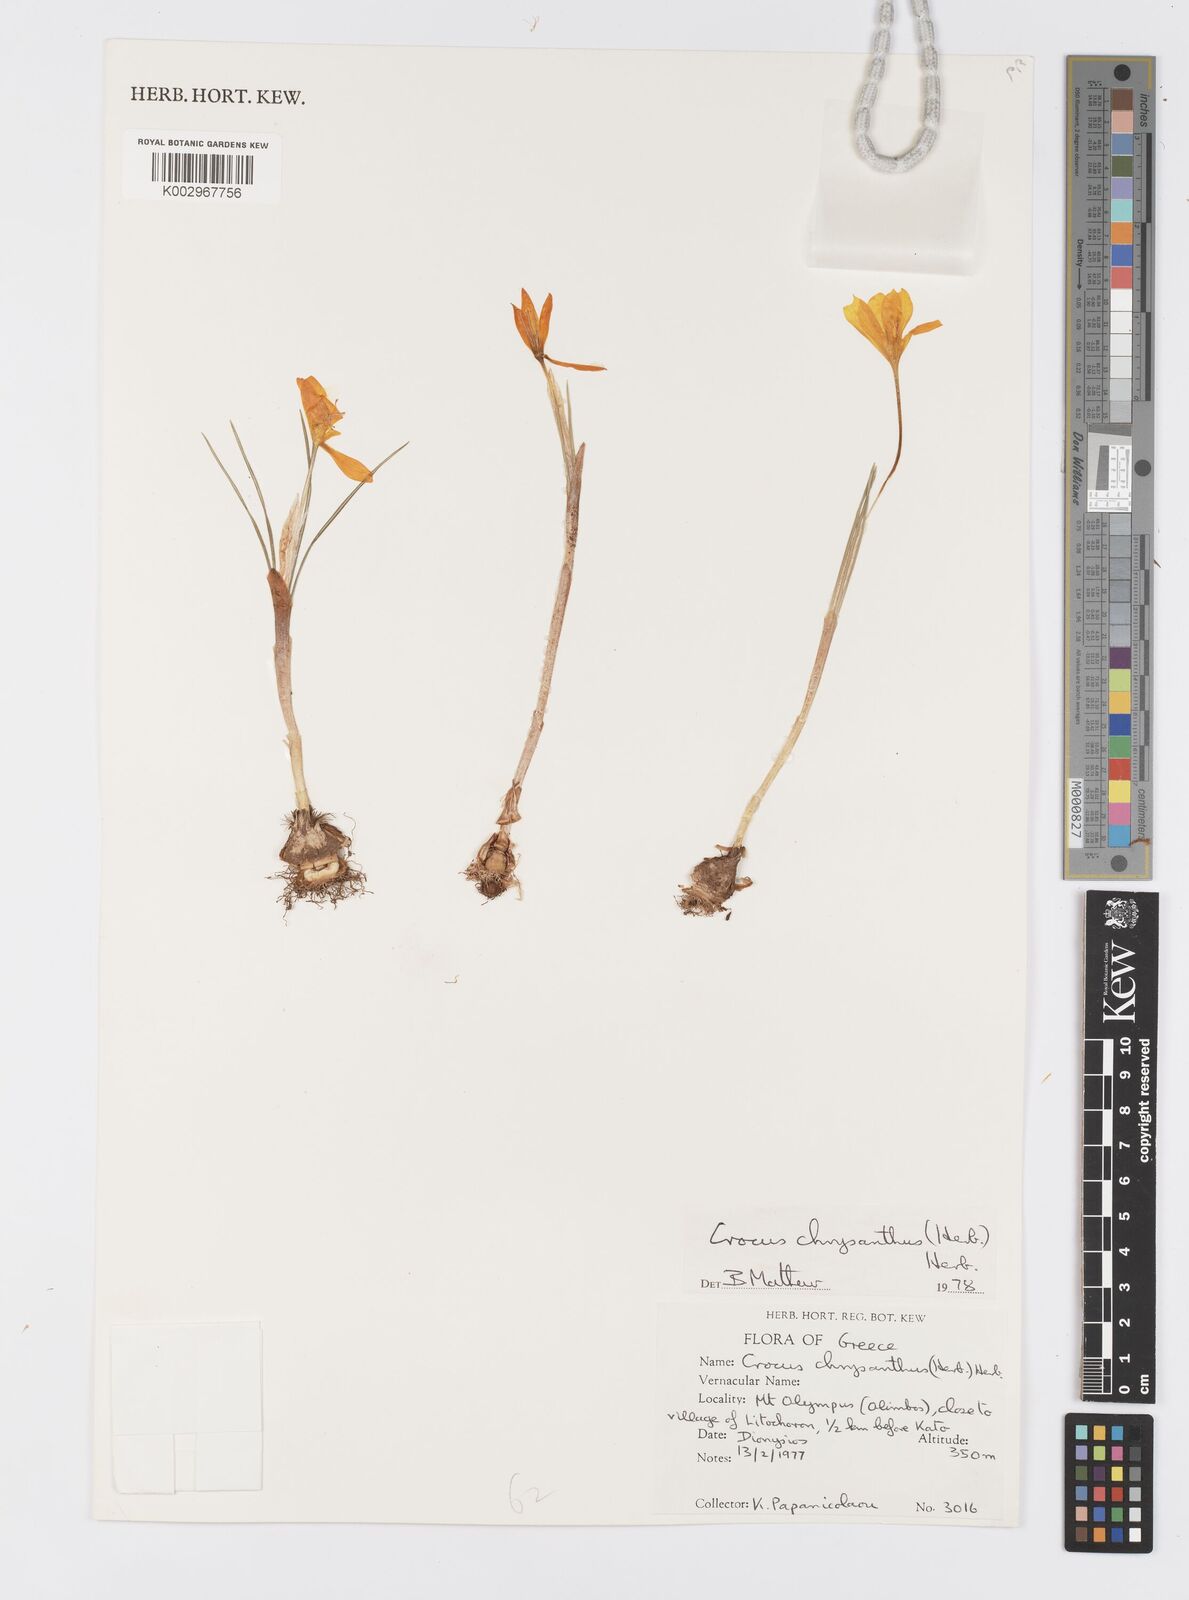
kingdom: Plantae
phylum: Tracheophyta
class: Liliopsida
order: Asparagales
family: Iridaceae
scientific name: Iridaceae
